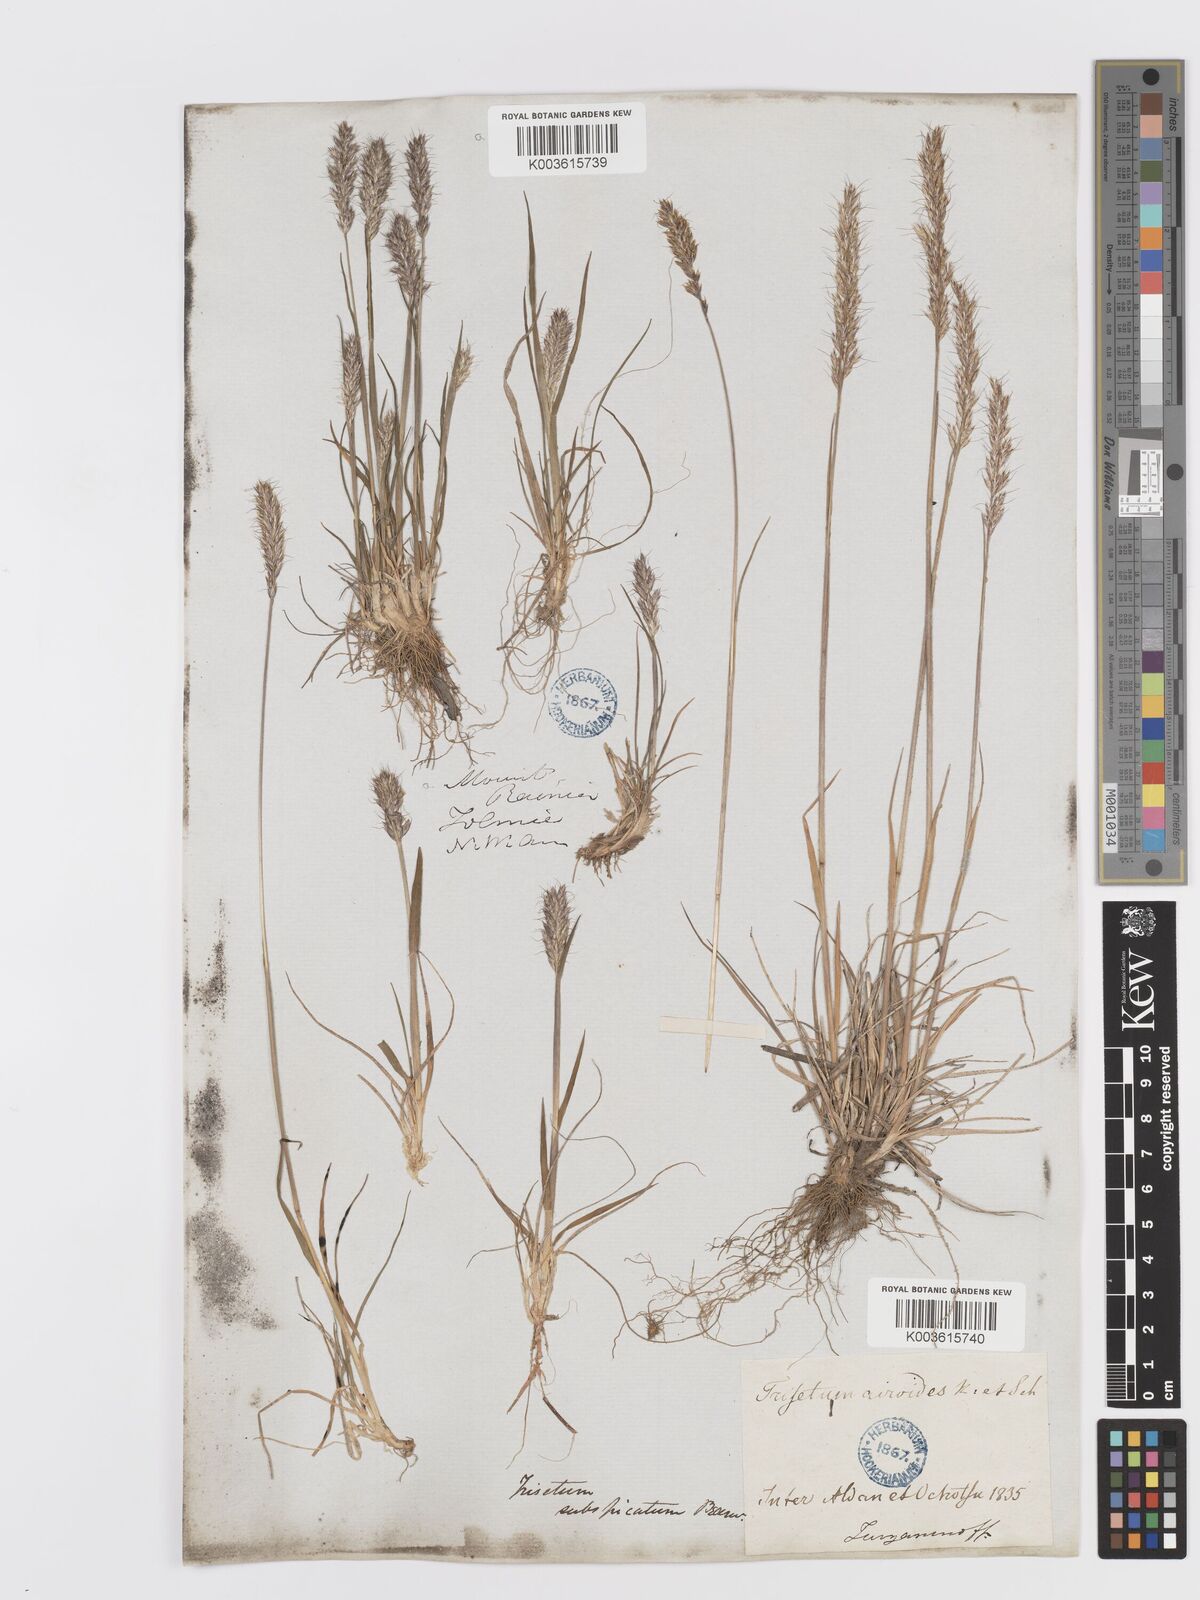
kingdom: Plantae
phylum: Tracheophyta
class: Liliopsida
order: Poales
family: Poaceae
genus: Koeleria
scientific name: Koeleria spicata
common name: Mountain trisetum
